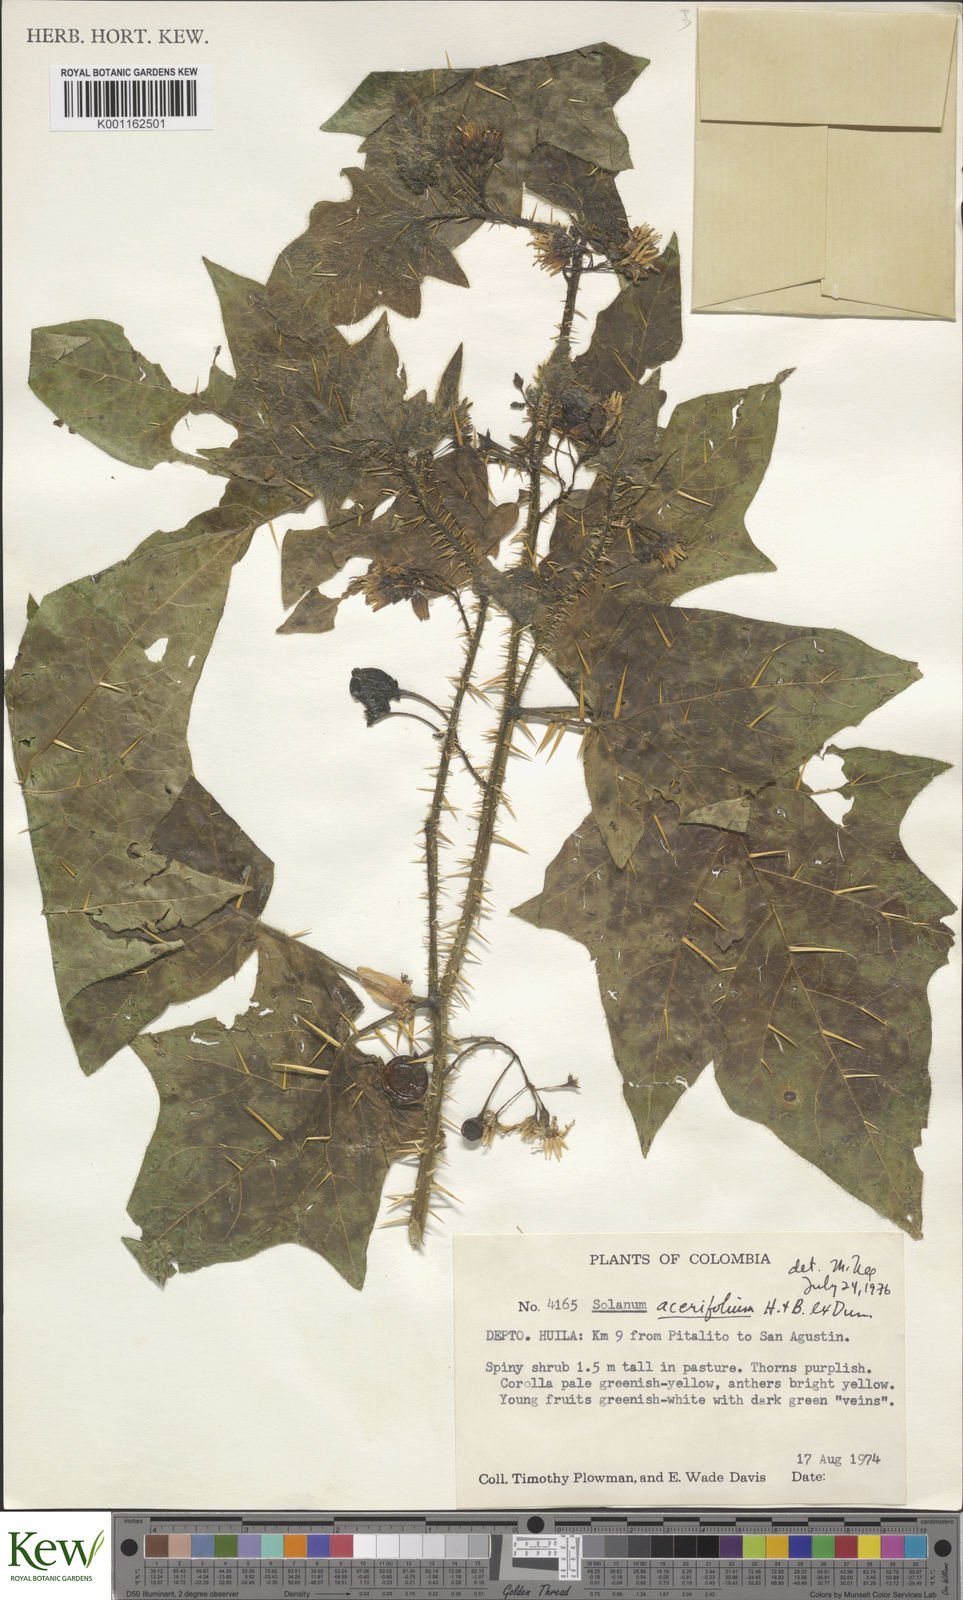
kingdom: Plantae
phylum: Tracheophyta
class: Magnoliopsida
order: Solanales
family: Solanaceae
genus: Solanum
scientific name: Solanum acerifolium
